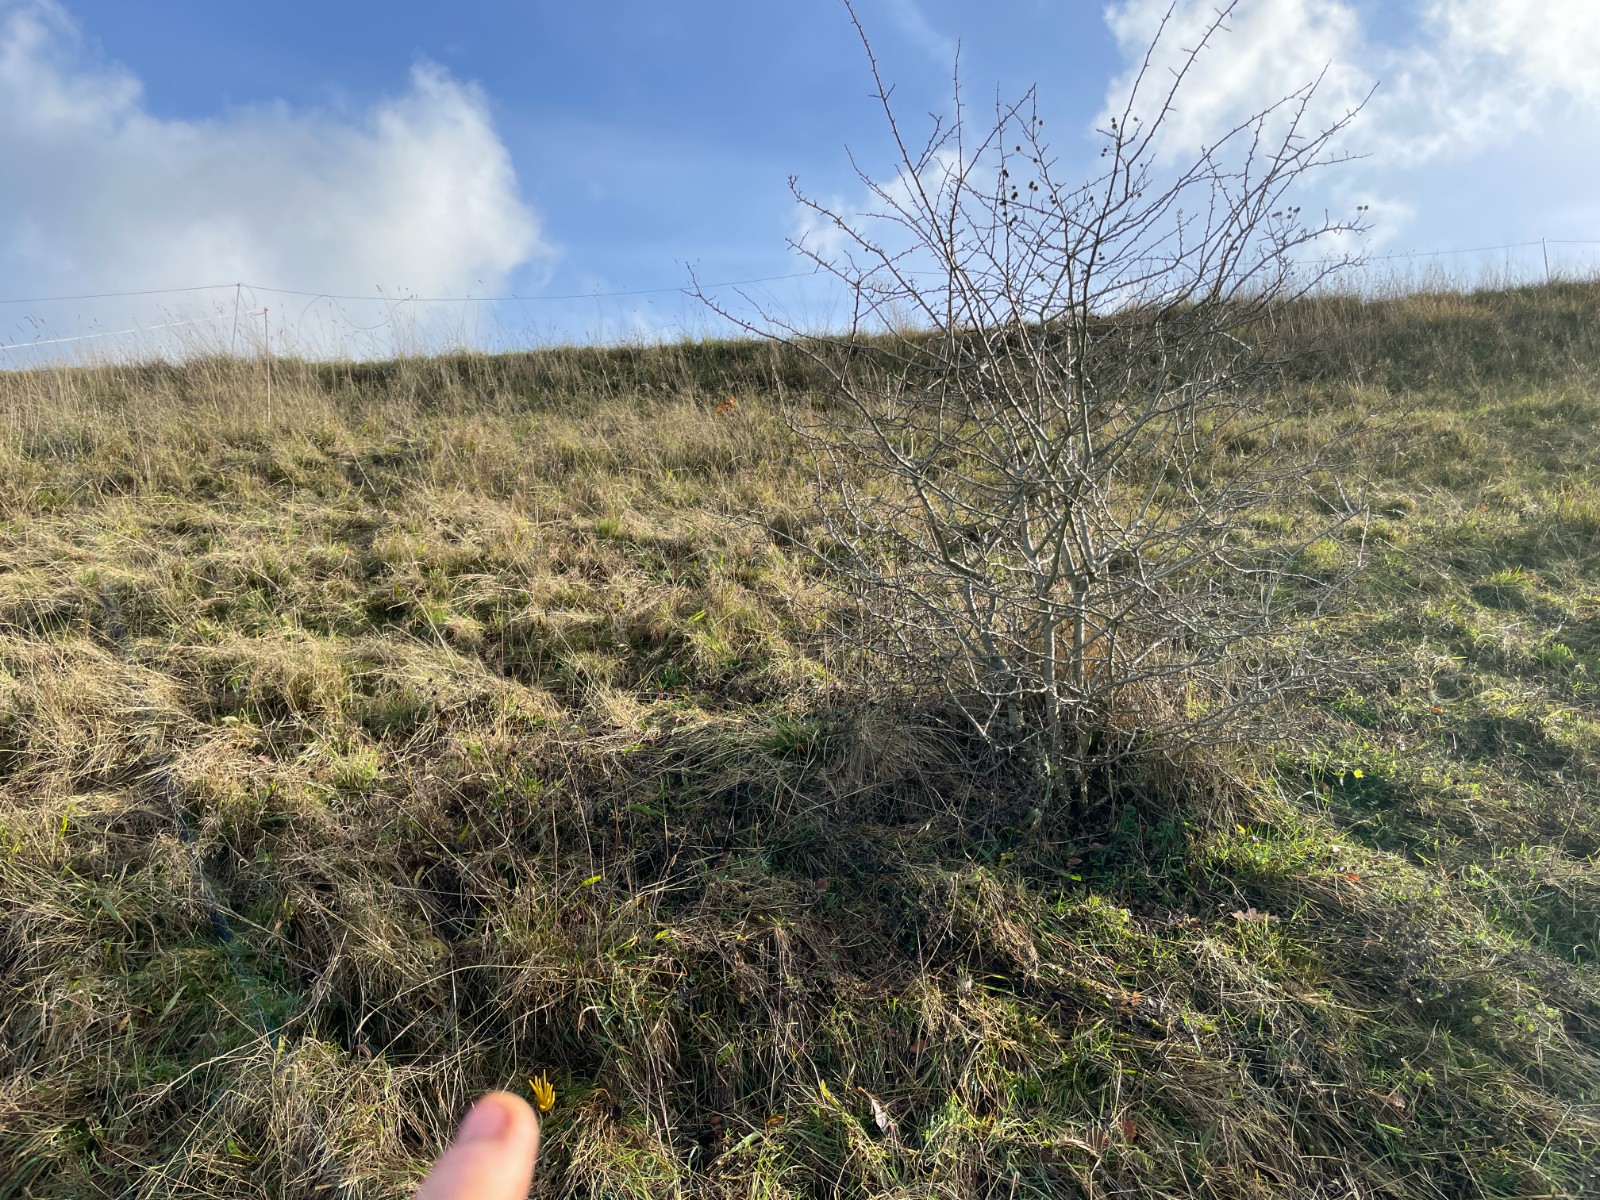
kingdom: Fungi
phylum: Basidiomycota
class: Agaricomycetes
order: Agaricales
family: Clavariaceae
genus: Clavulinopsis
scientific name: Clavulinopsis fusiformis
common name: tenformet køllesvamp
